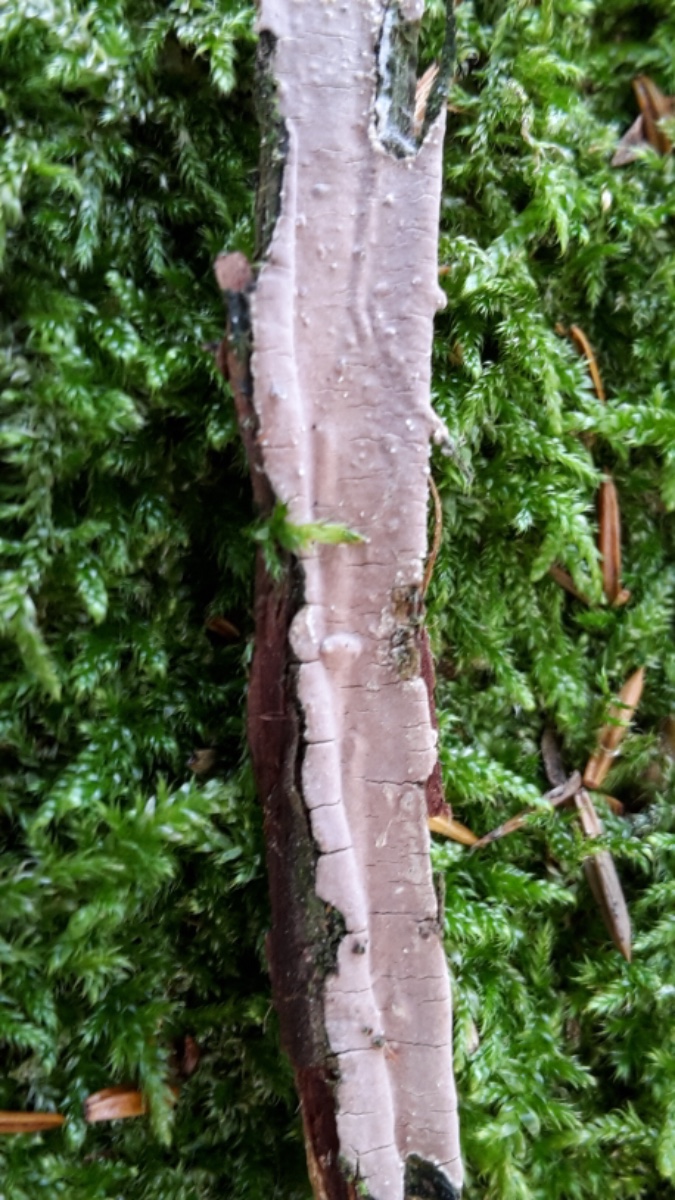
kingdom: Fungi
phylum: Basidiomycota
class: Agaricomycetes
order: Russulales
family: Echinodontiaceae
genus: Amylostereum
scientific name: Amylostereum laevigatum
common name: ene-lædersvamp
